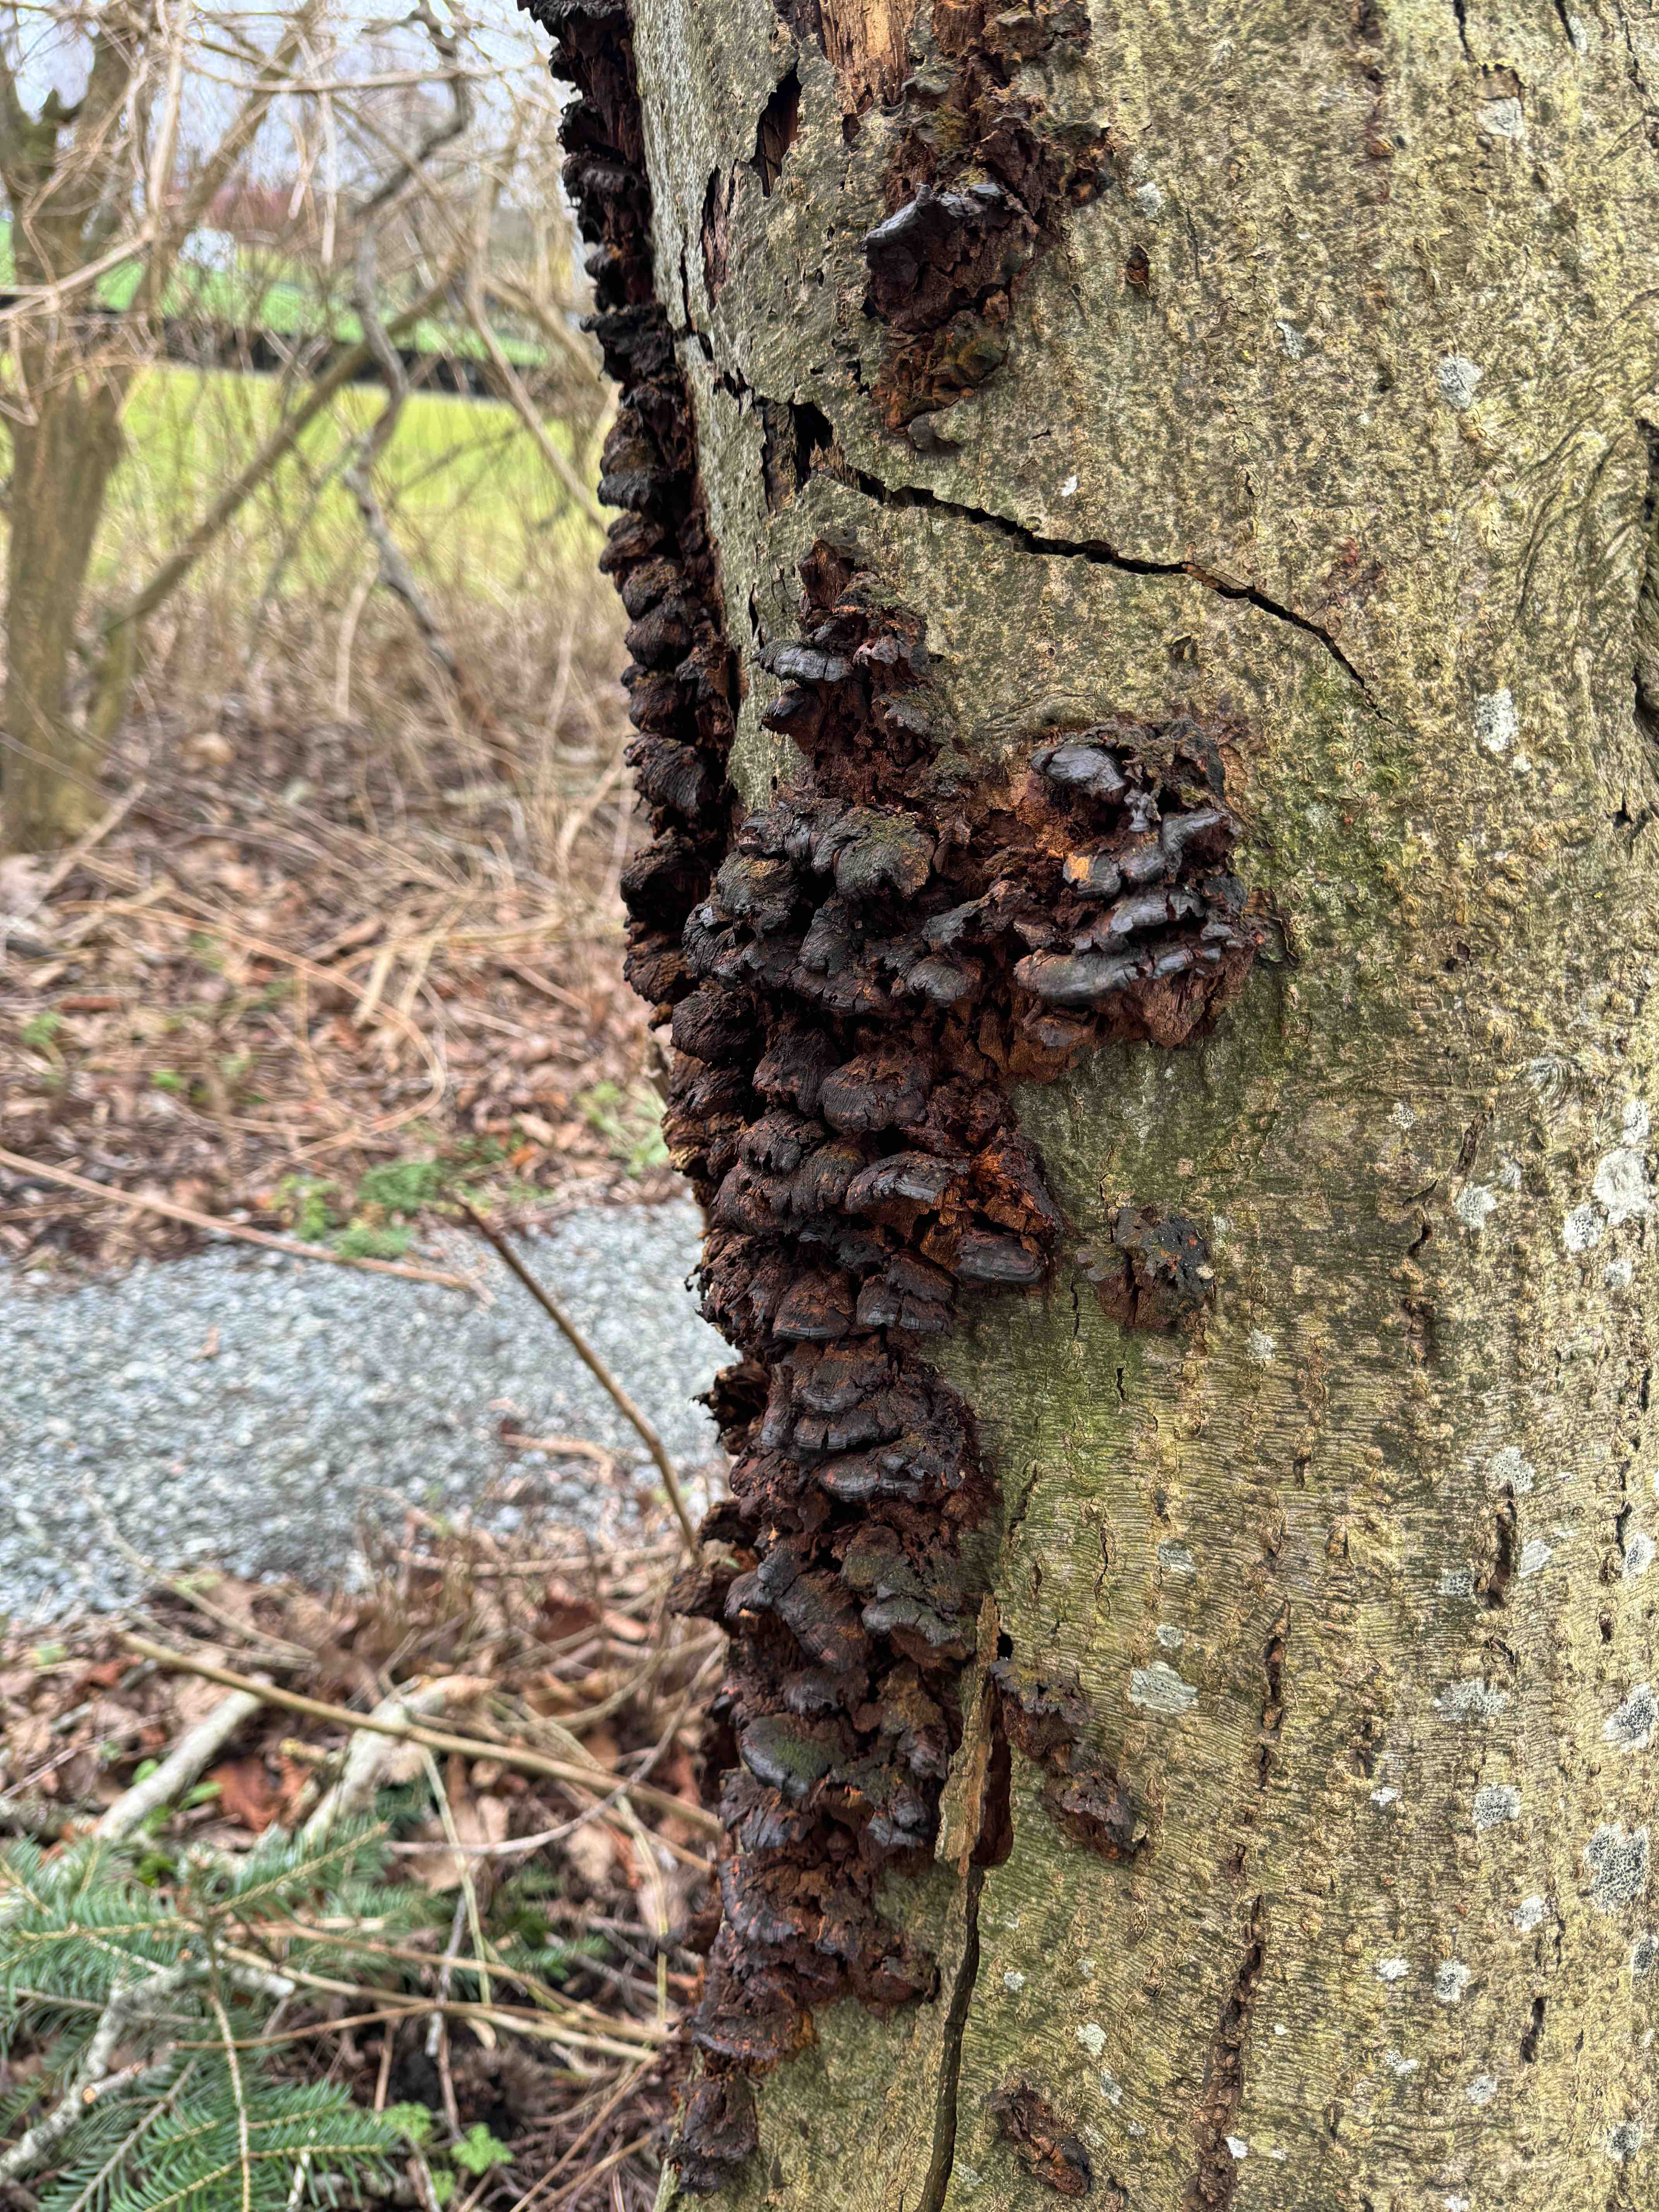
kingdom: Fungi
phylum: Basidiomycota
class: Agaricomycetes
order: Hymenochaetales
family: Hymenochaetaceae
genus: Xanthoporia
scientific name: Xanthoporia radiata
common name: elle-spejlporesvamp
